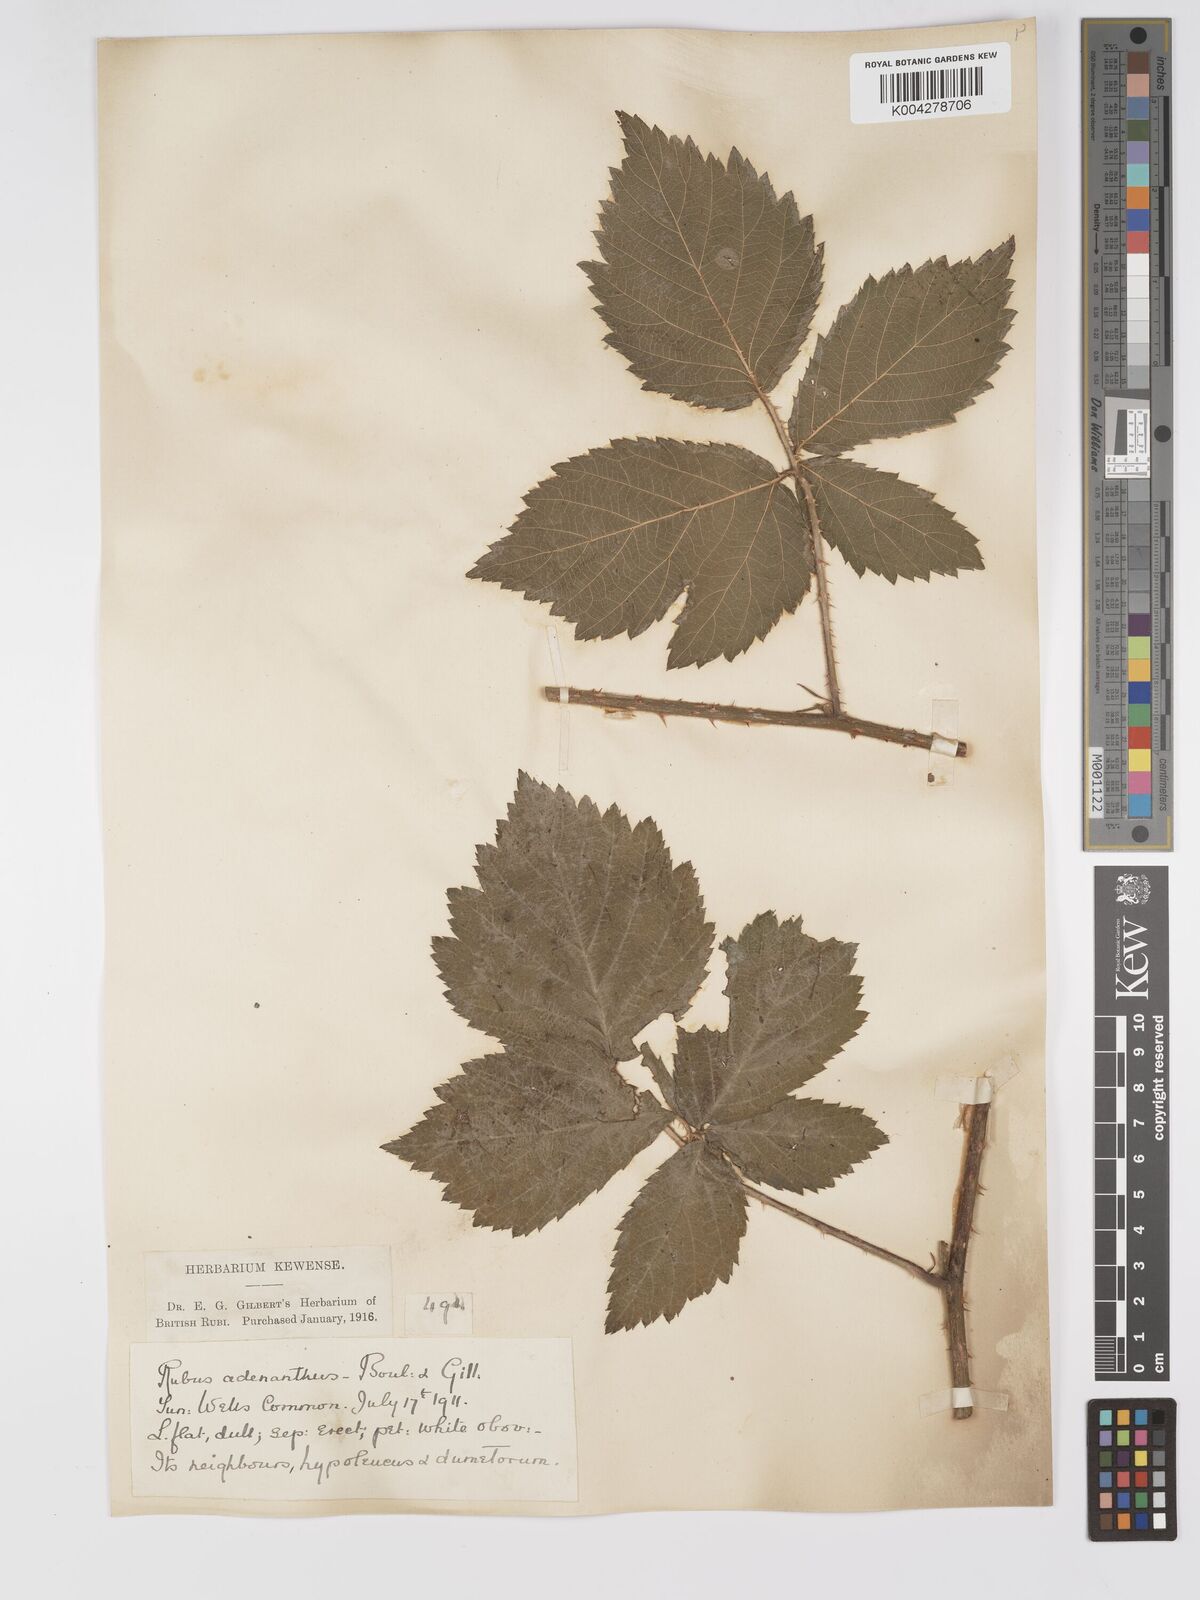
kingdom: Plantae
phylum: Tracheophyta
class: Magnoliopsida
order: Rosales
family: Rosaceae
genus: Rubus
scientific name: Rubus swinhoei
